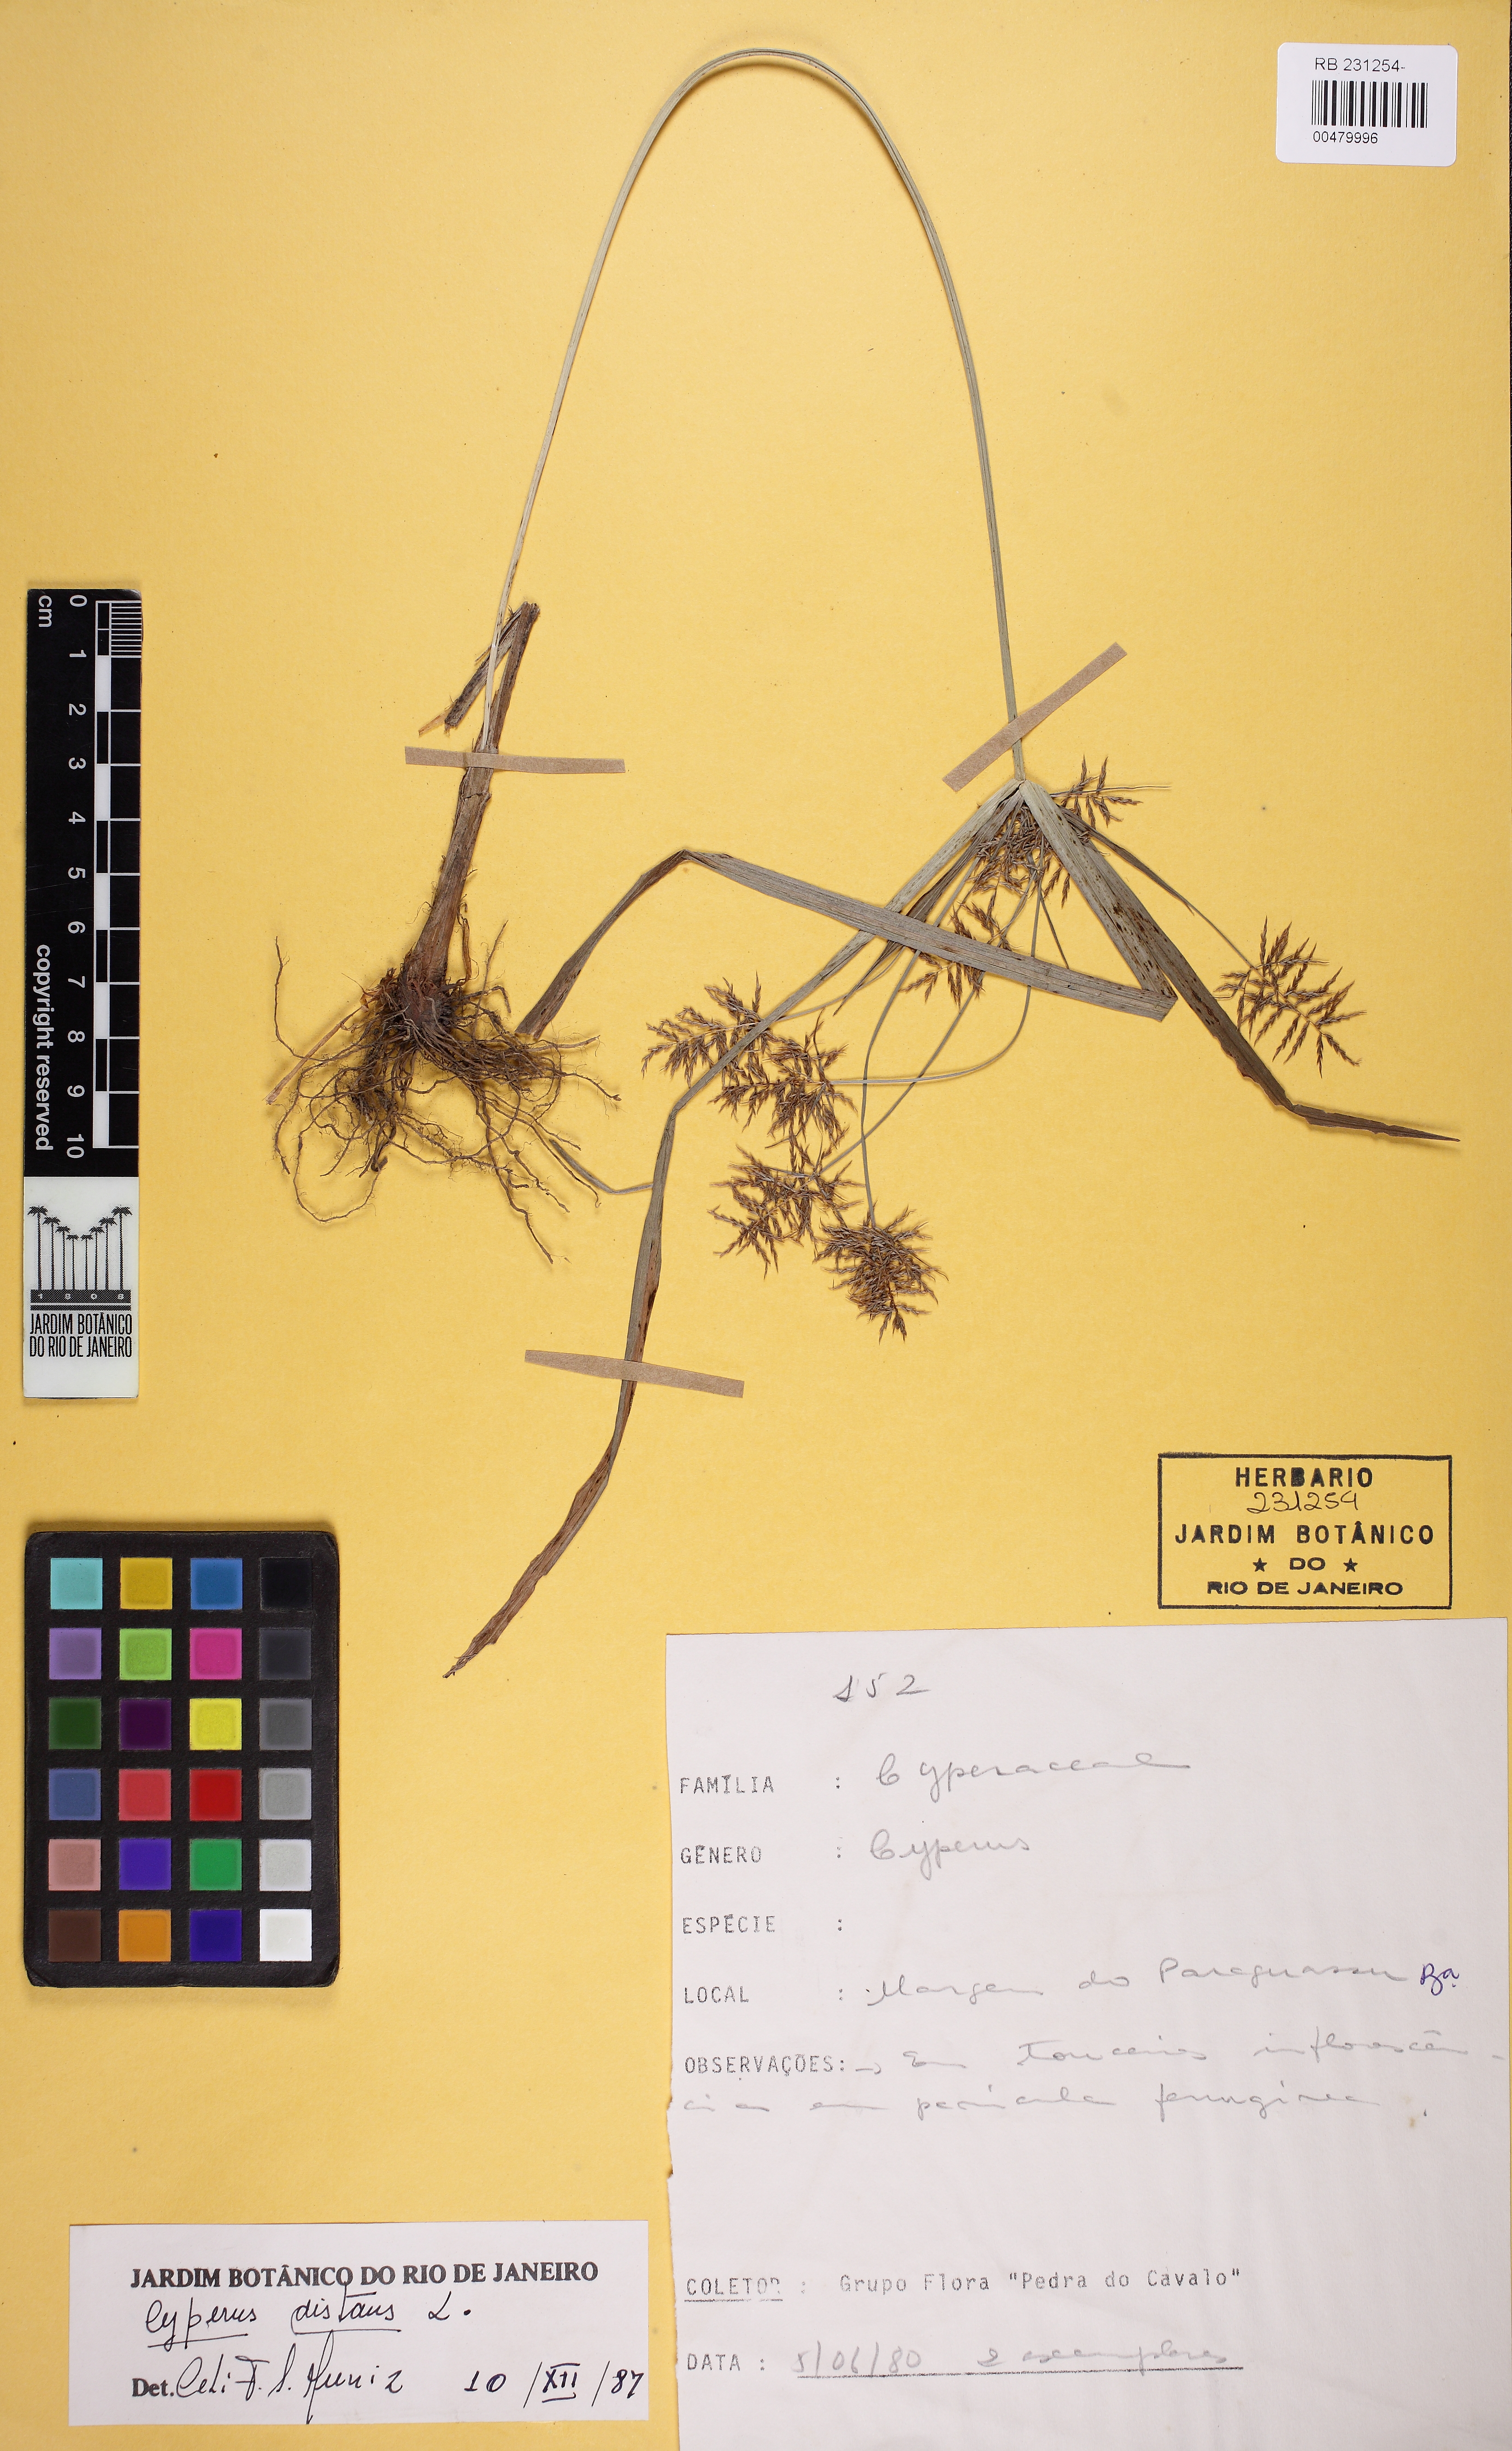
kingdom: Plantae
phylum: Tracheophyta
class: Liliopsida
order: Poales
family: Cyperaceae
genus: Cyperus
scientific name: Cyperus distans
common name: Slender cyperus
